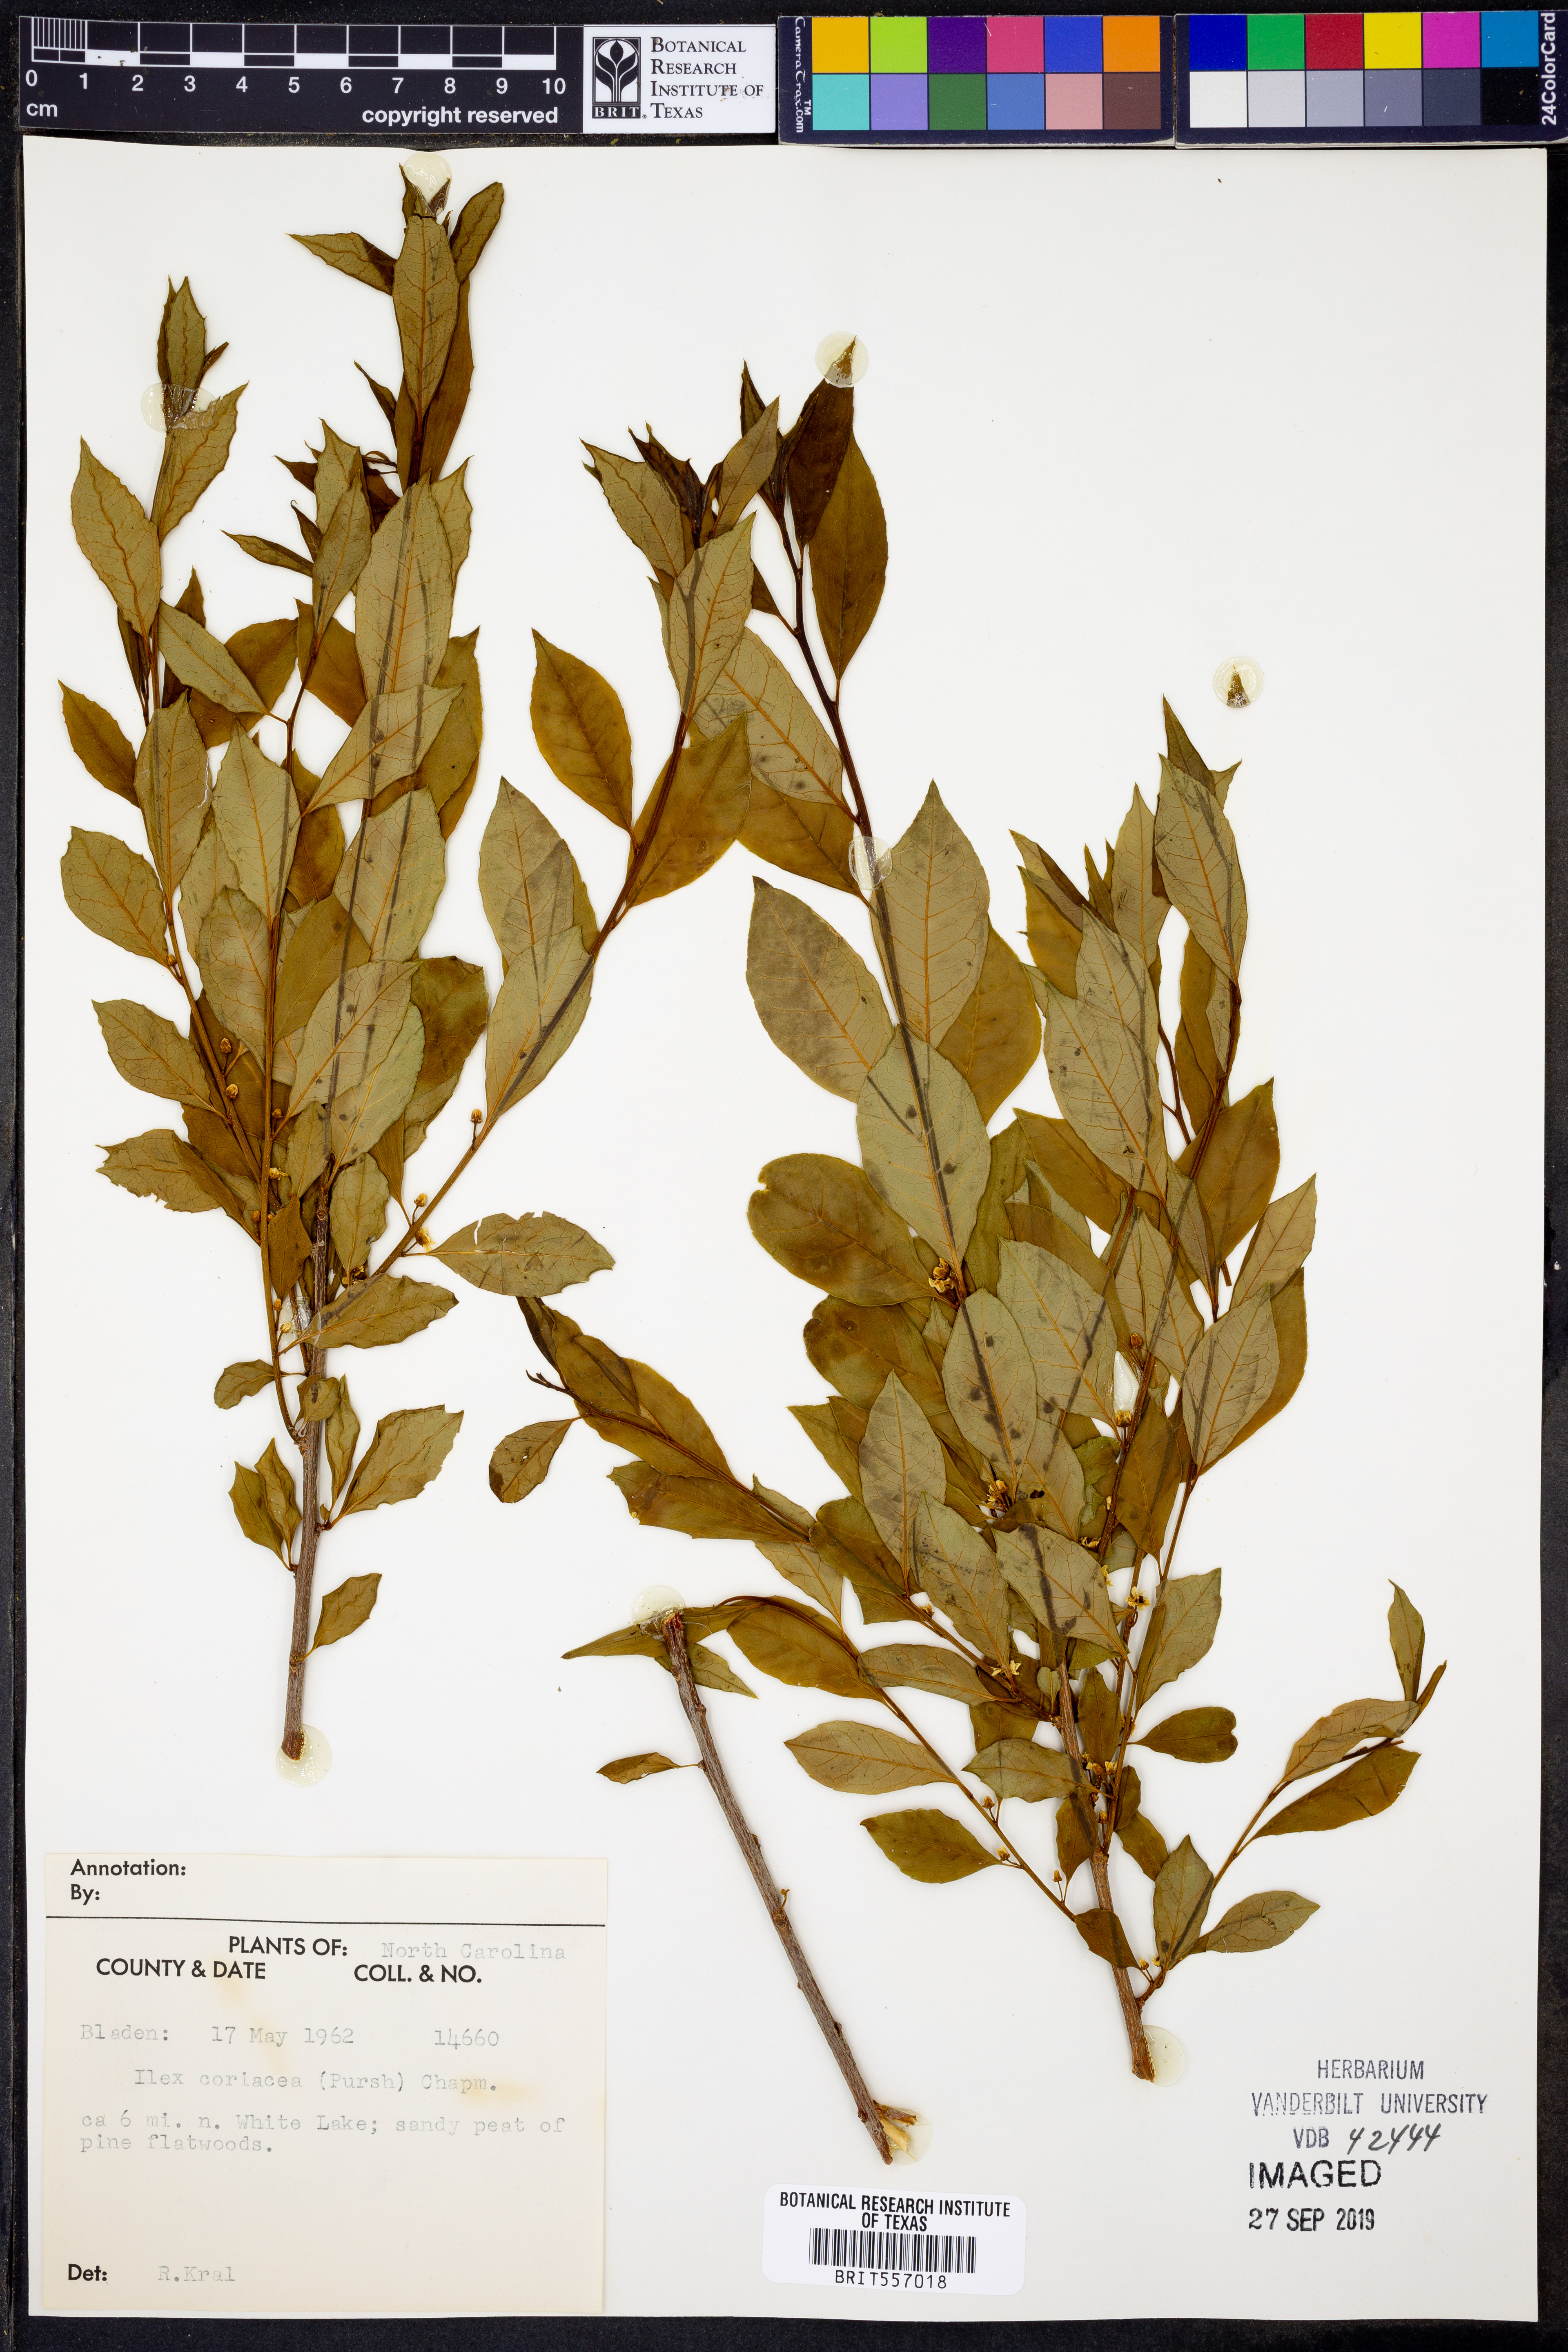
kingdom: Plantae
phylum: Tracheophyta
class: Magnoliopsida
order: Aquifoliales
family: Aquifoliaceae
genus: Ilex
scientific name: Ilex coriacea
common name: Sweet gallberry
